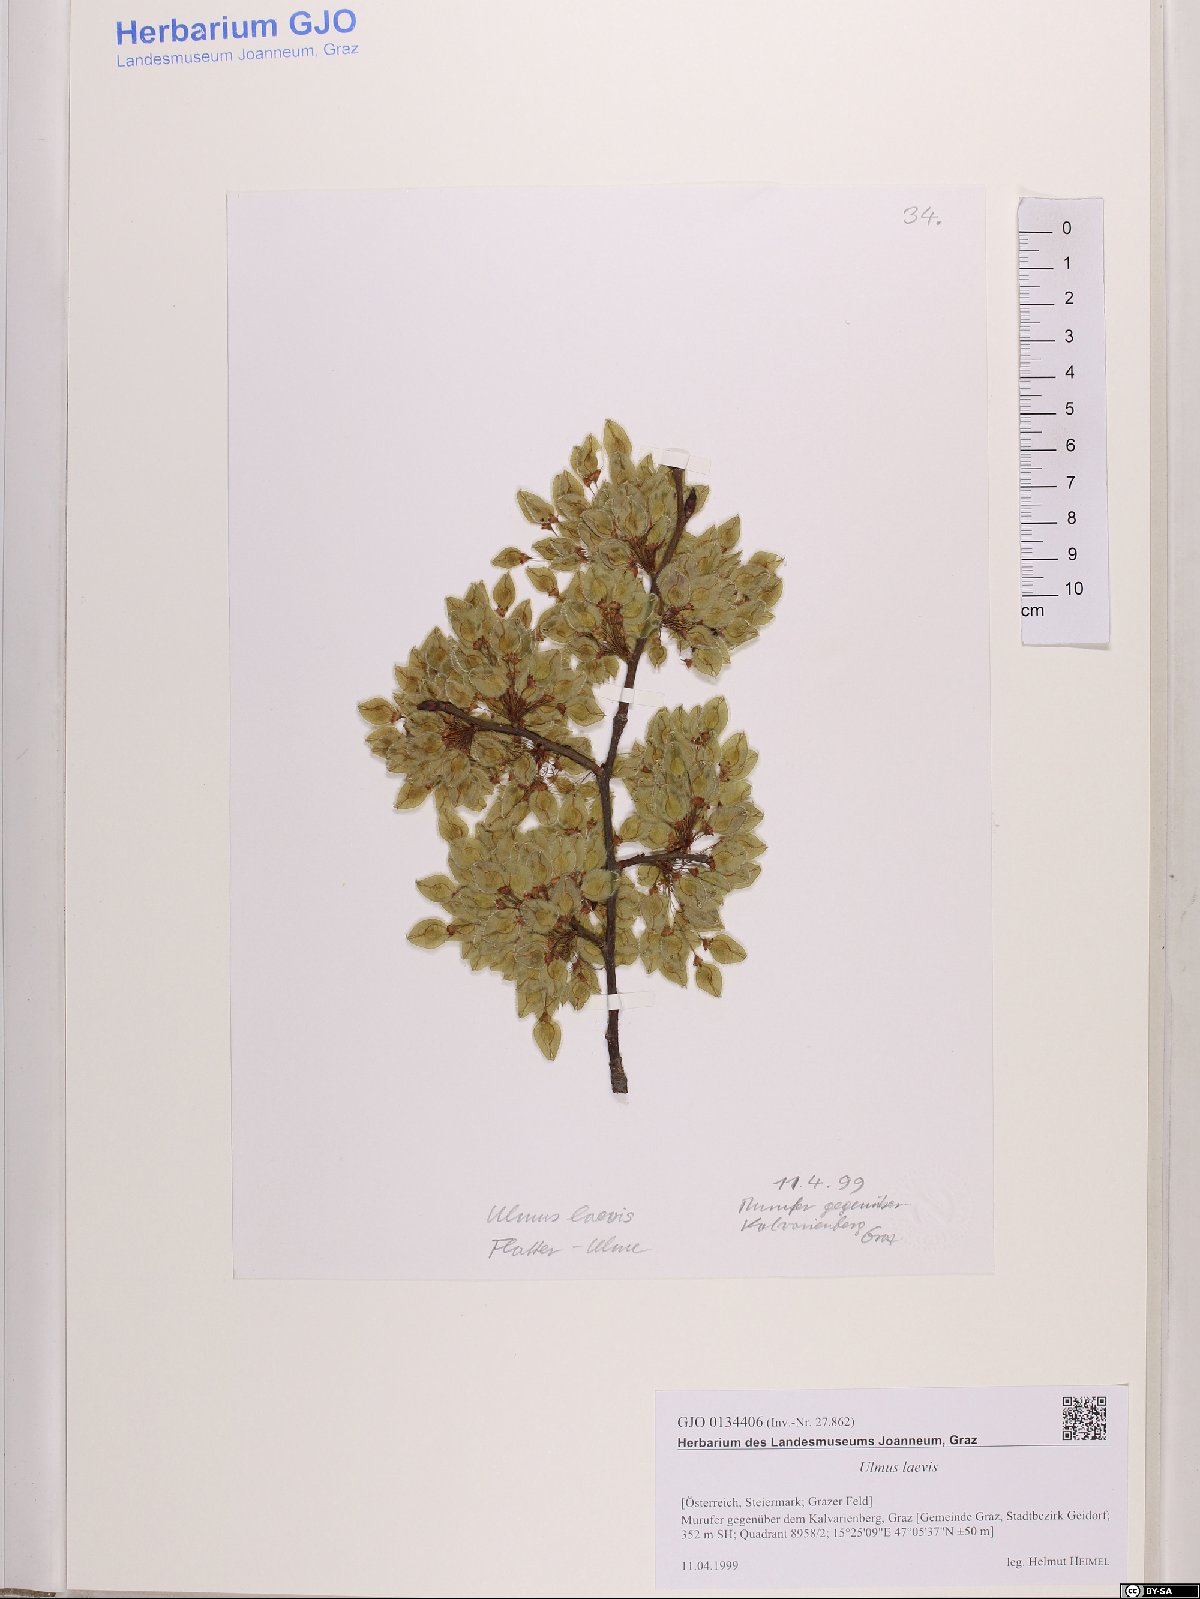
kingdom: Plantae
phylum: Tracheophyta
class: Magnoliopsida
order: Rosales
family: Ulmaceae
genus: Ulmus
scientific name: Ulmus laevis
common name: European white-elm
